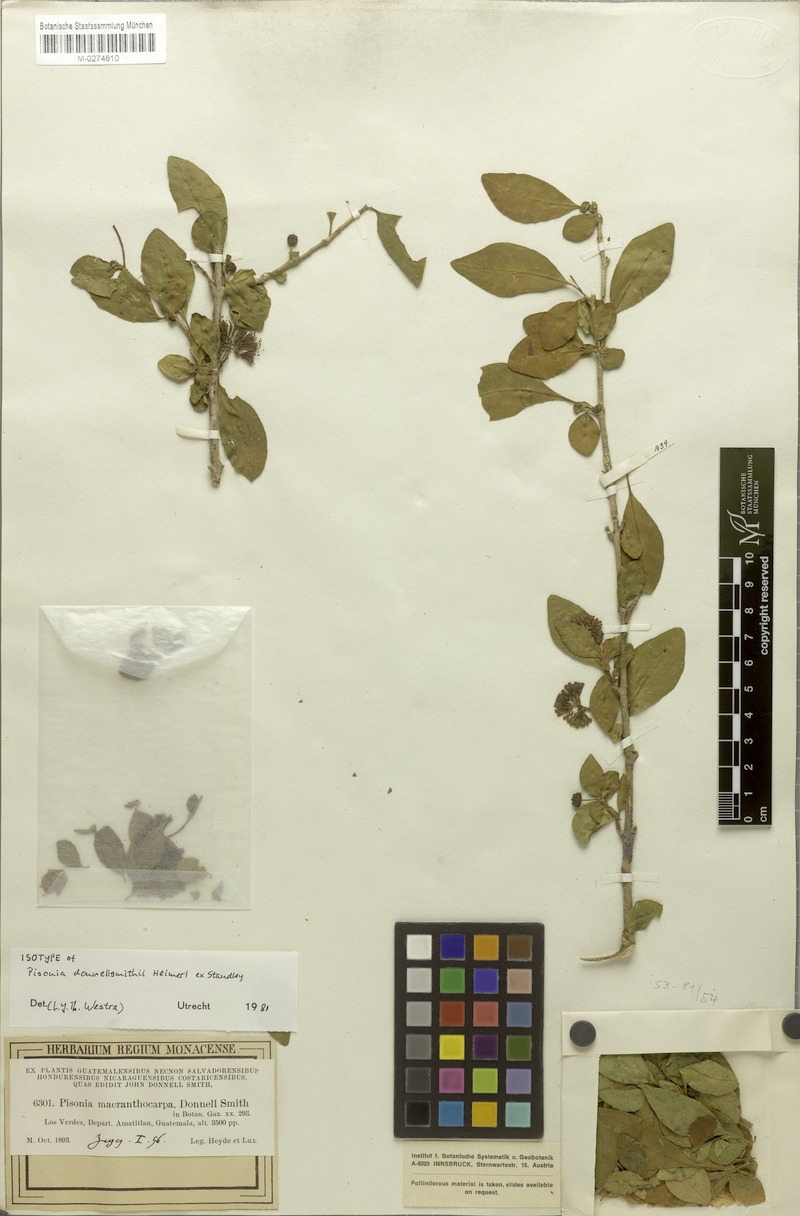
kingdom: Plantae
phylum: Tracheophyta
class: Magnoliopsida
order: Caryophyllales
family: Nyctaginaceae
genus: Pisonia
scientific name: Pisonia donnellsmithii
